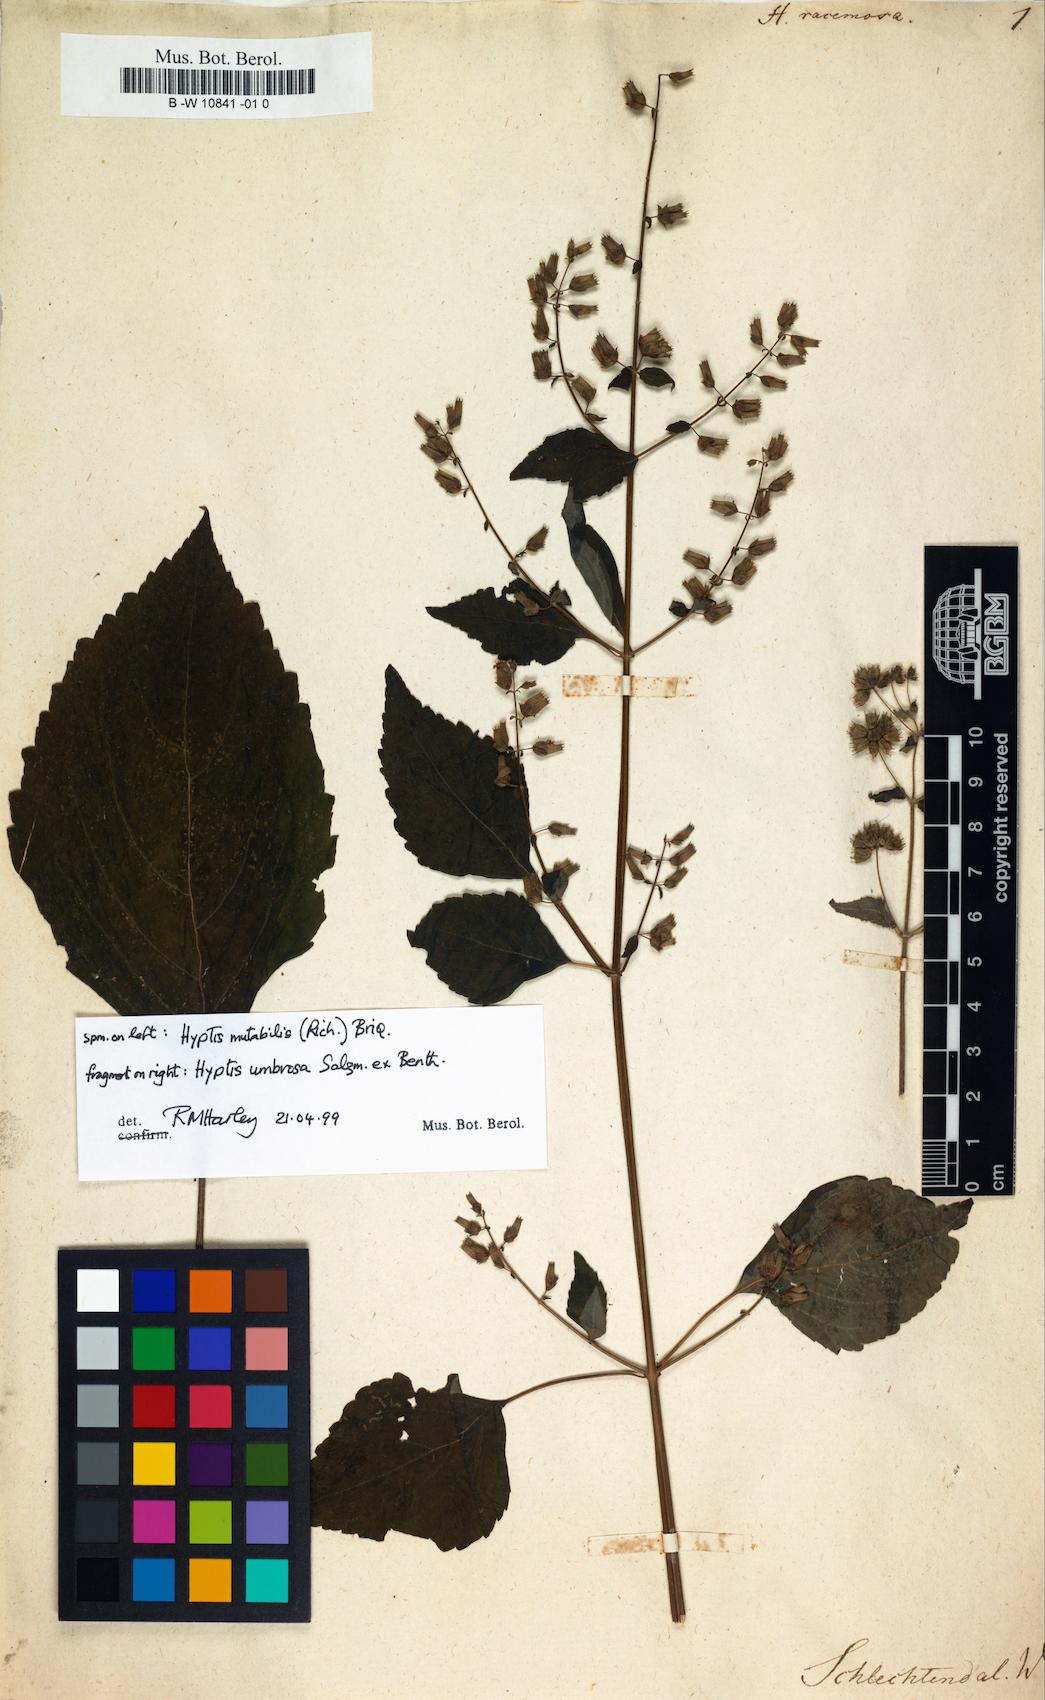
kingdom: Plantae
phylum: Tracheophyta
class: Magnoliopsida
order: Lamiales
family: Lamiaceae
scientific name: Lamiaceae
